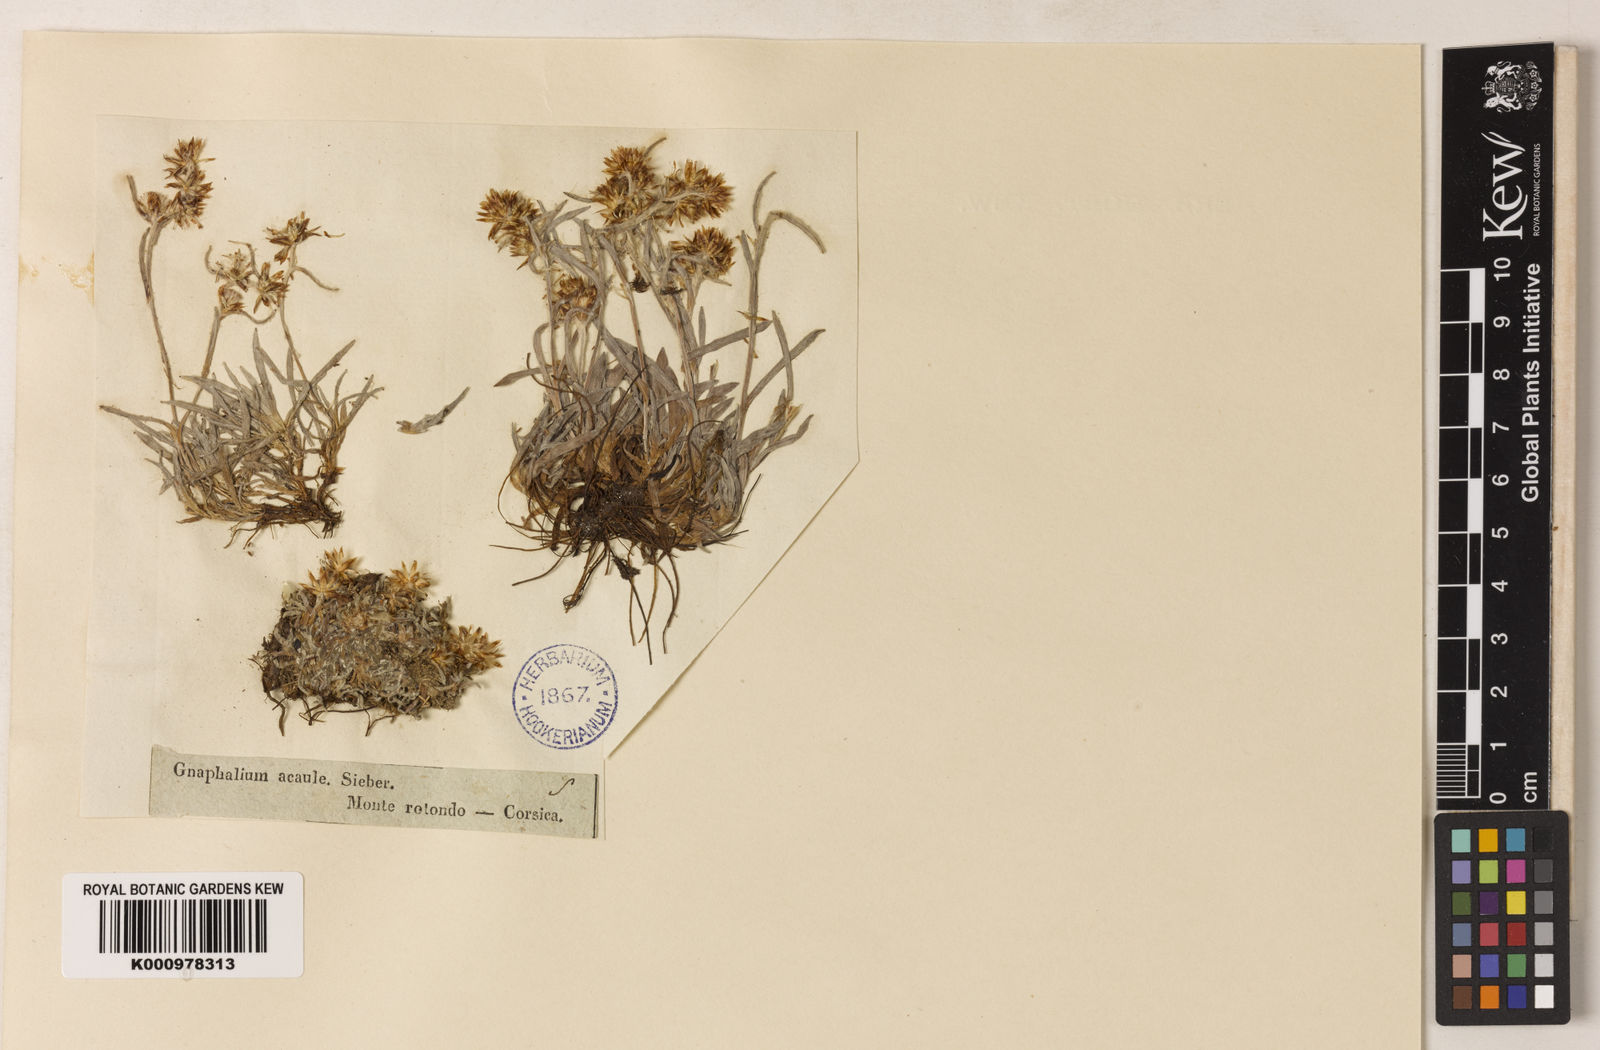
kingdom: Plantae
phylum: Tracheophyta
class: Magnoliopsida
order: Asterales
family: Asteraceae
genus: Omalotheca
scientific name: Omalotheca supina
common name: Alpine arctic-cudweed
